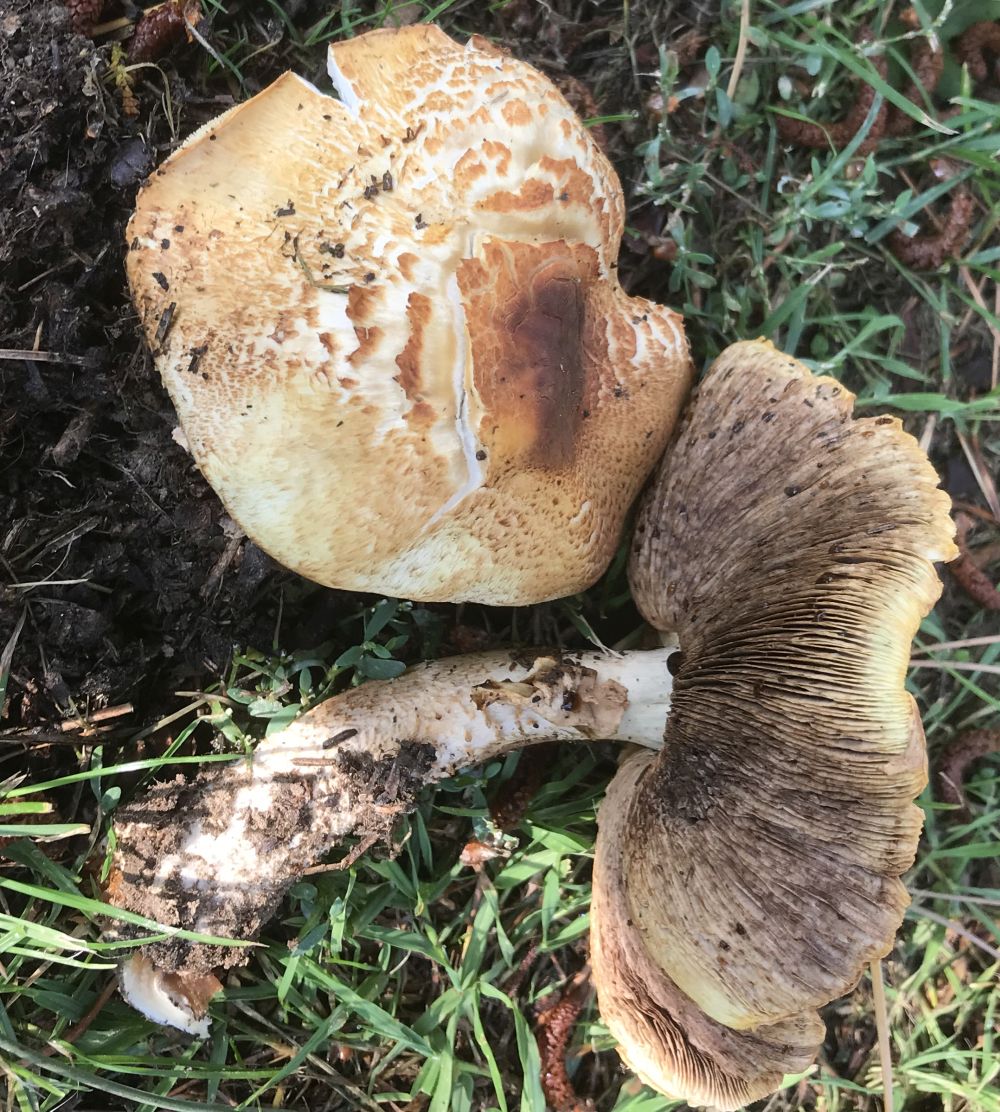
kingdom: Fungi
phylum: Basidiomycota
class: Agaricomycetes
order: Agaricales
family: Agaricaceae
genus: Agaricus
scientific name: Agaricus augustus
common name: prægtig champignon
